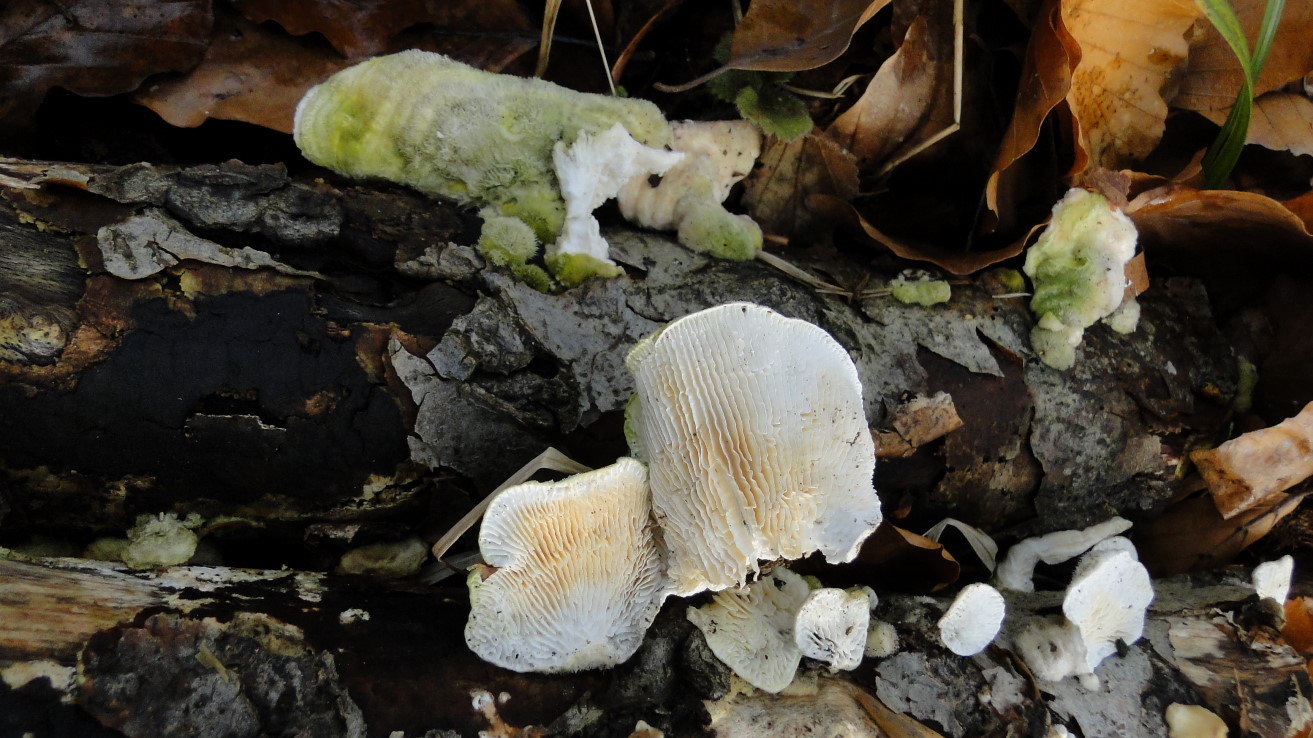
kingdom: Fungi
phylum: Basidiomycota
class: Agaricomycetes
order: Polyporales
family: Polyporaceae
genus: Lenzites
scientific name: Lenzites betulinus
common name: birke-læderporesvamp
